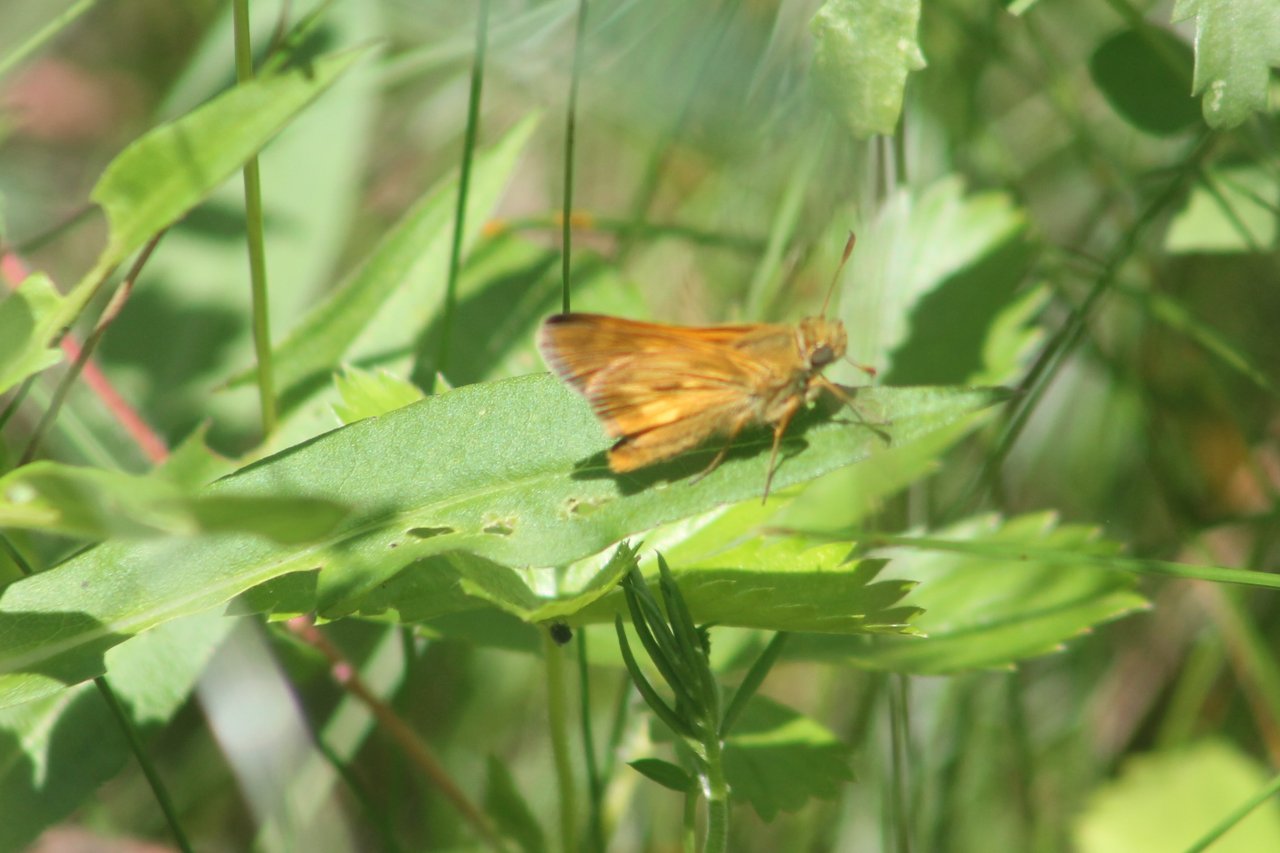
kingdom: Animalia
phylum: Arthropoda
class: Insecta
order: Lepidoptera
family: Hesperiidae
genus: Polites
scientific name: Polites
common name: Long Dash Skipper
